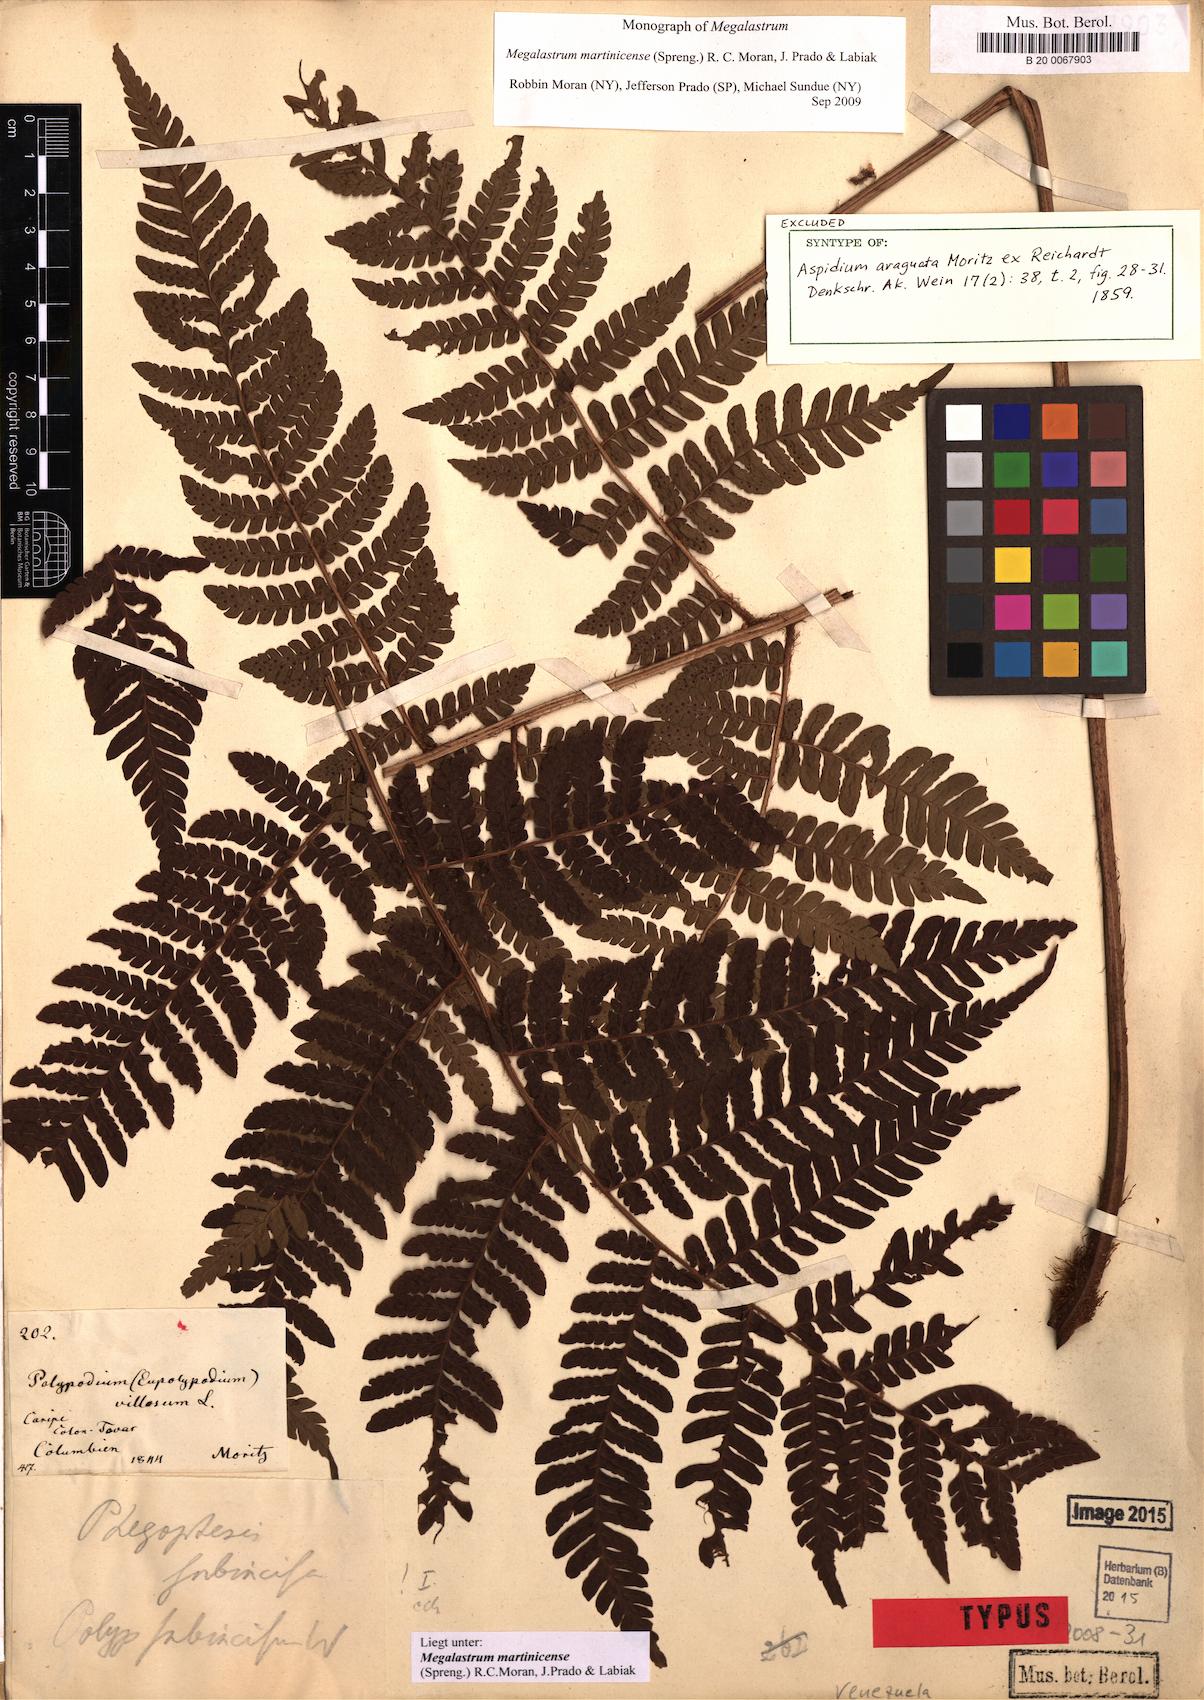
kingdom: Plantae
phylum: Tracheophyta
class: Polypodiopsida
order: Polypodiales
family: Dryopteridaceae
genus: Megalastrum
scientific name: Megalastrum martinicense
